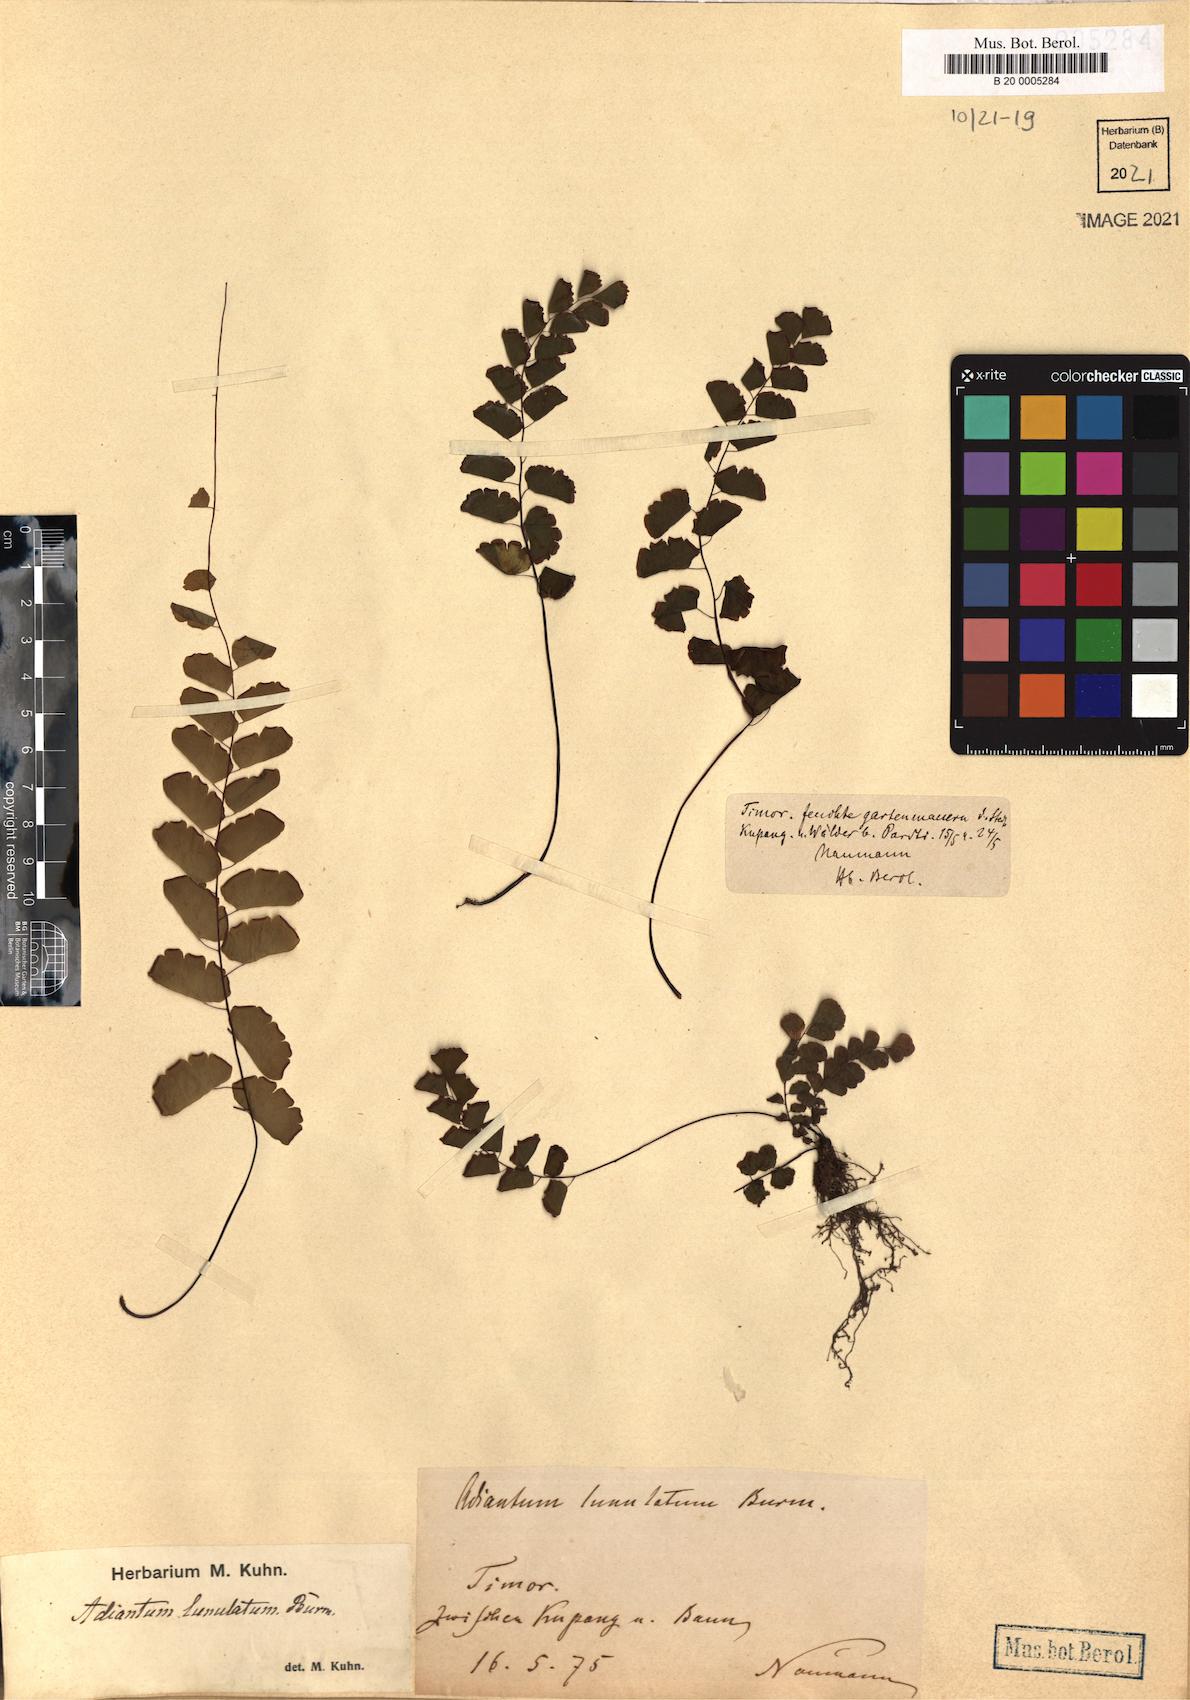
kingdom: Plantae
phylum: Tracheophyta
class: Polypodiopsida
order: Polypodiales
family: Pteridaceae
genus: Adiantum
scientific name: Adiantum philippense
